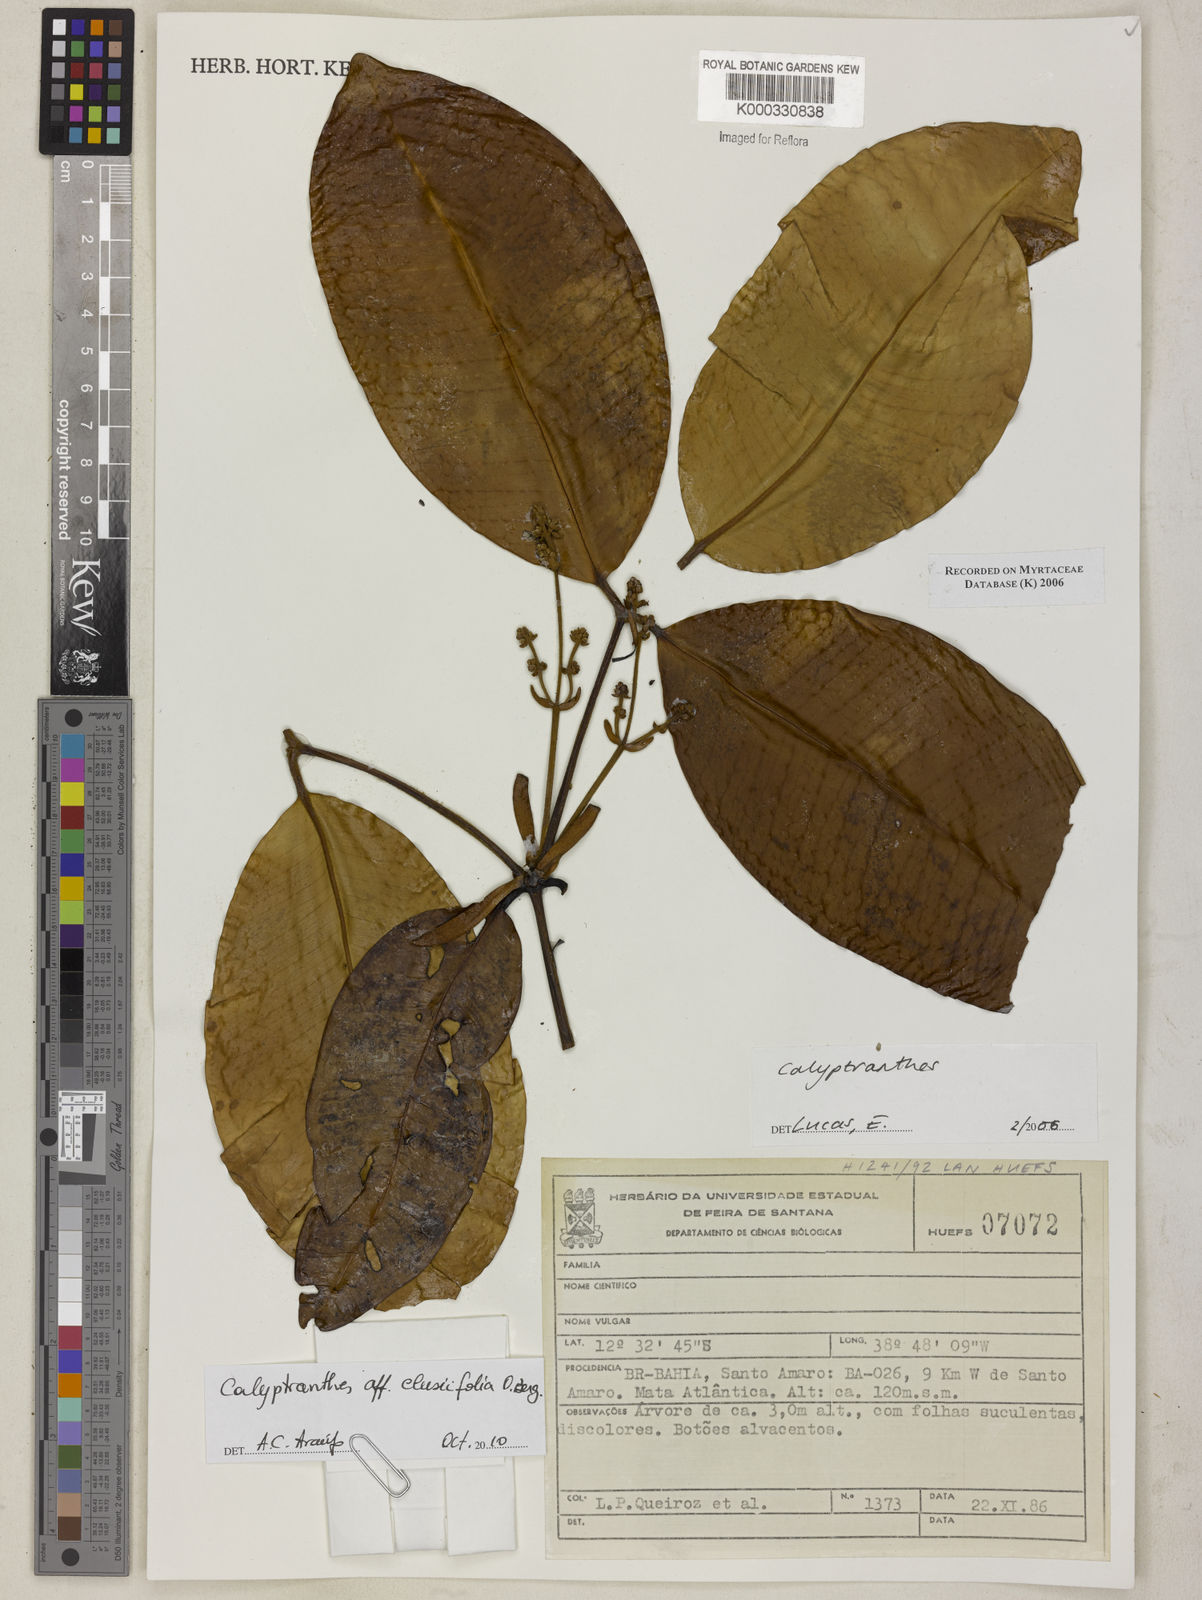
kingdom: Plantae
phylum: Tracheophyta
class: Magnoliopsida
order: Myrtales
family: Myrtaceae
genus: Calyptranthes
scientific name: Calyptranthes
